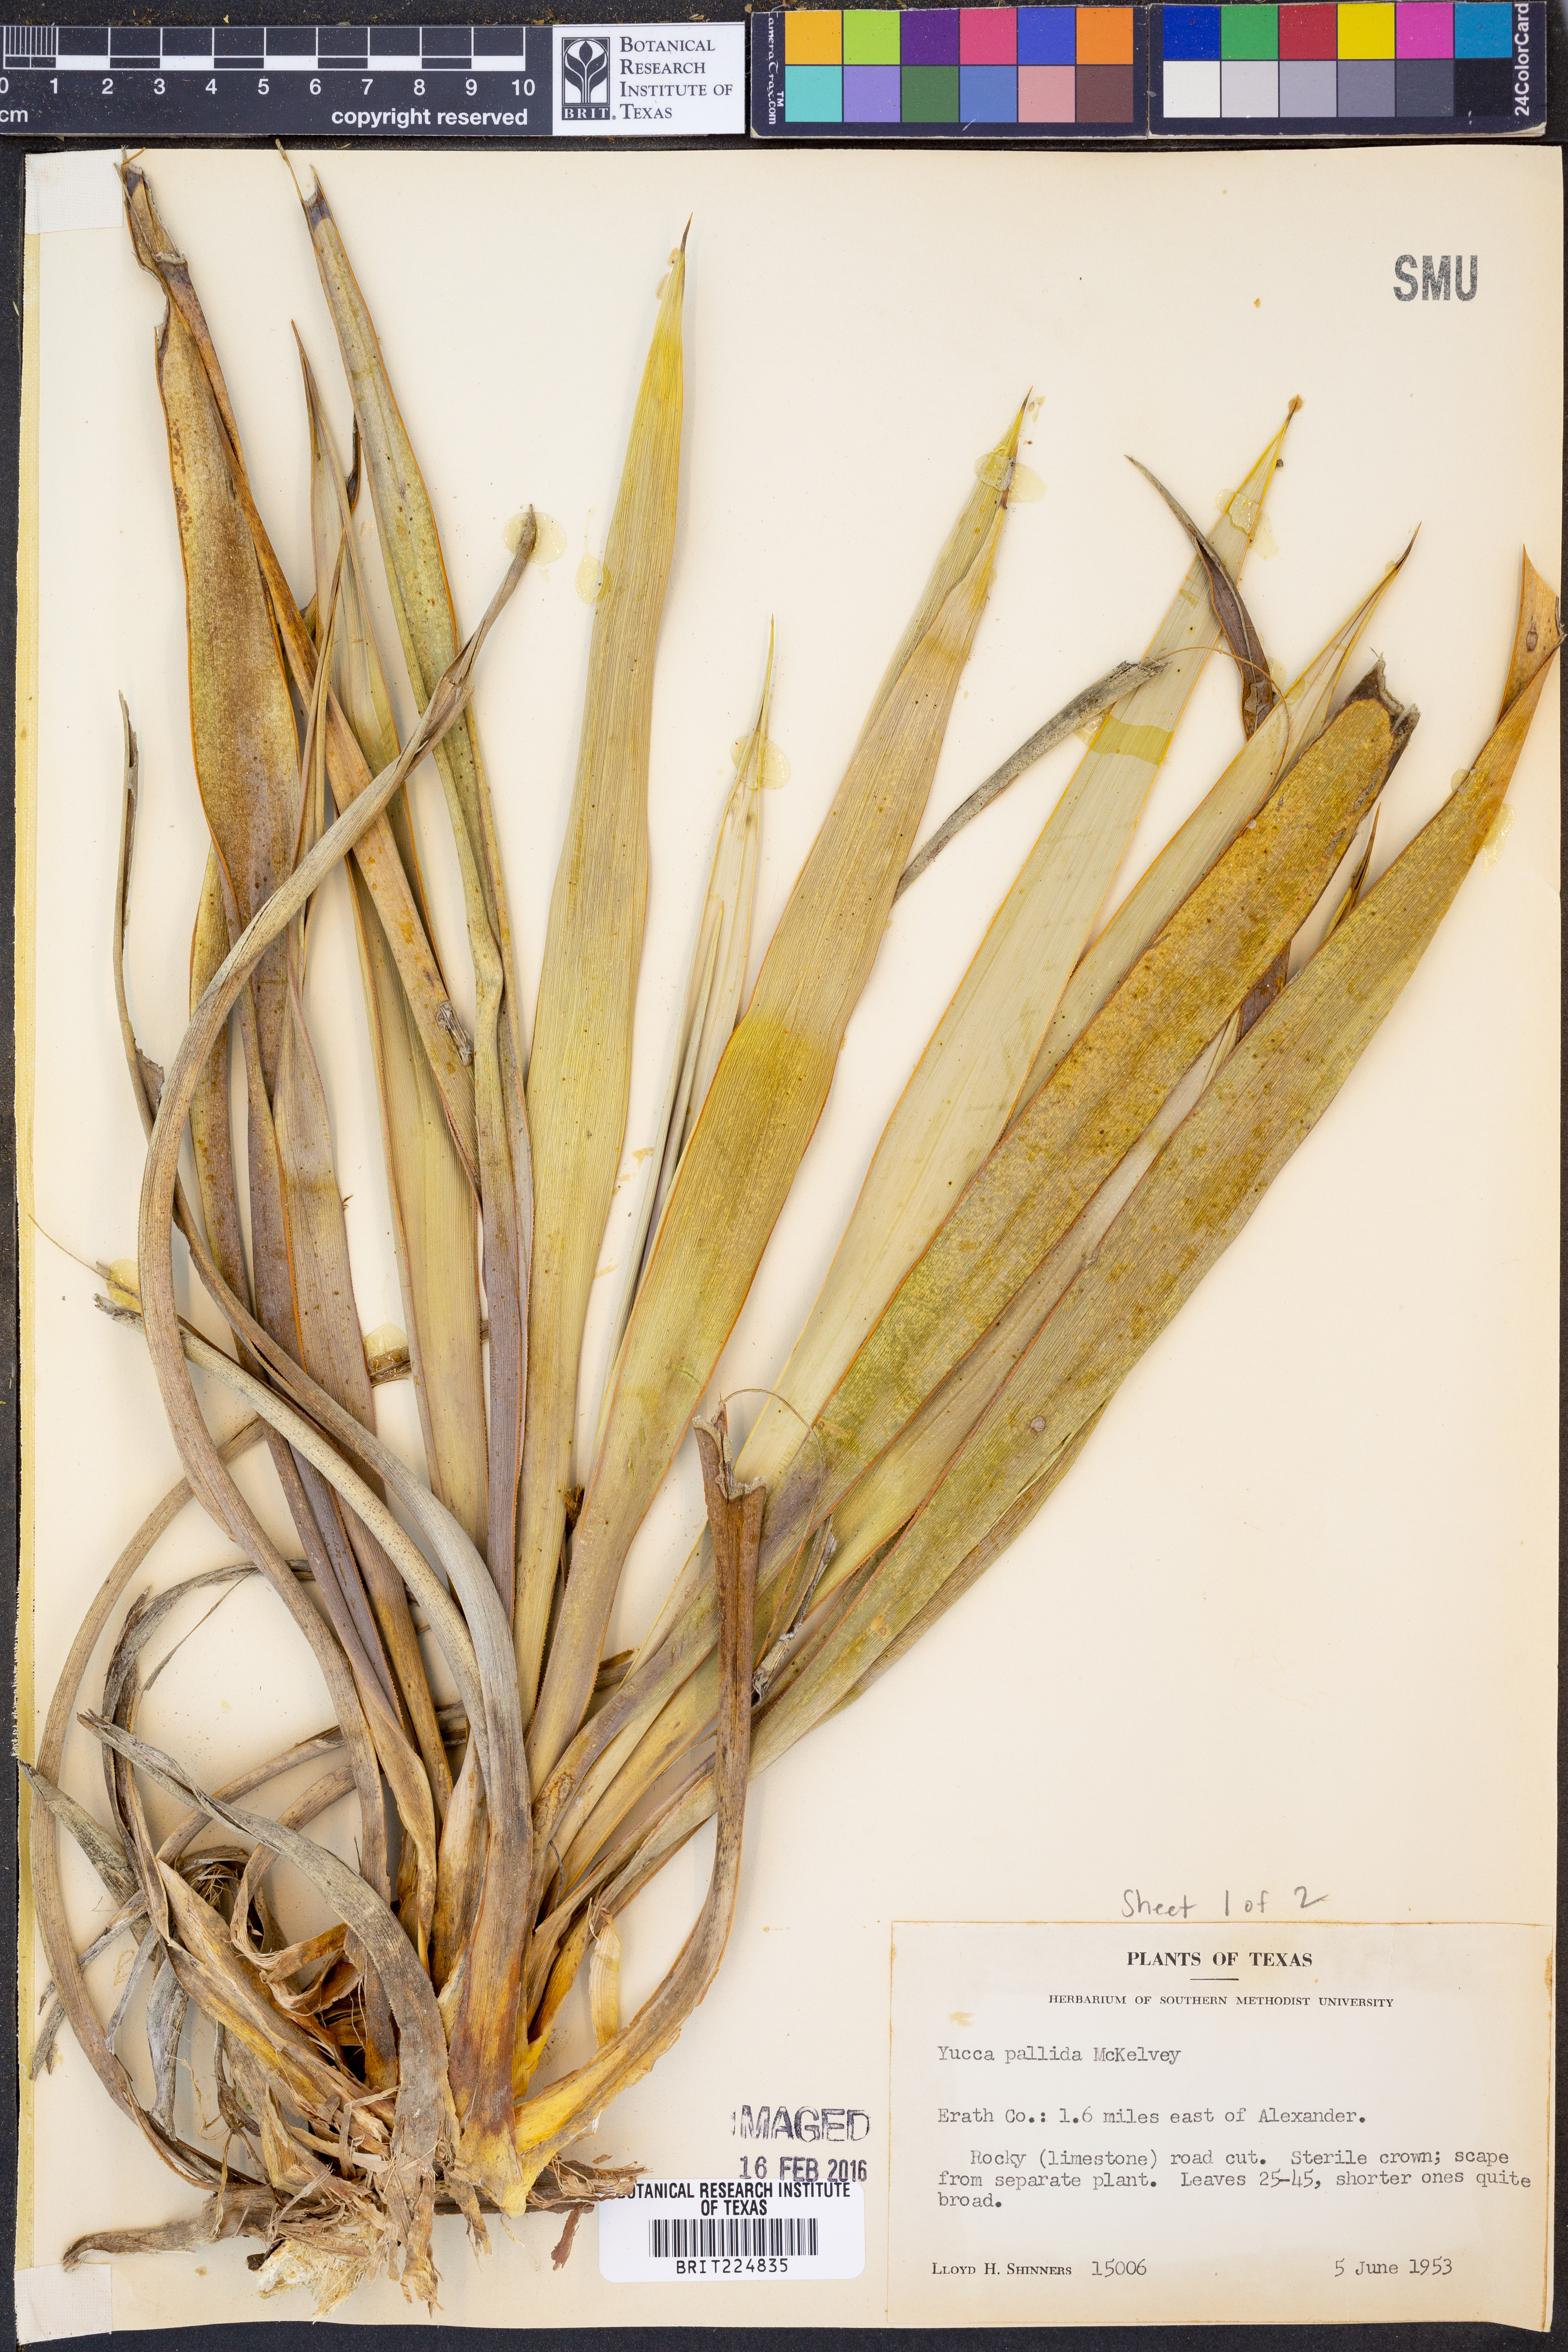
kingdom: Plantae
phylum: Tracheophyta
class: Liliopsida
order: Asparagales
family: Asparagaceae
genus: Yucca
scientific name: Yucca pallida
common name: Pale leaf yucca
